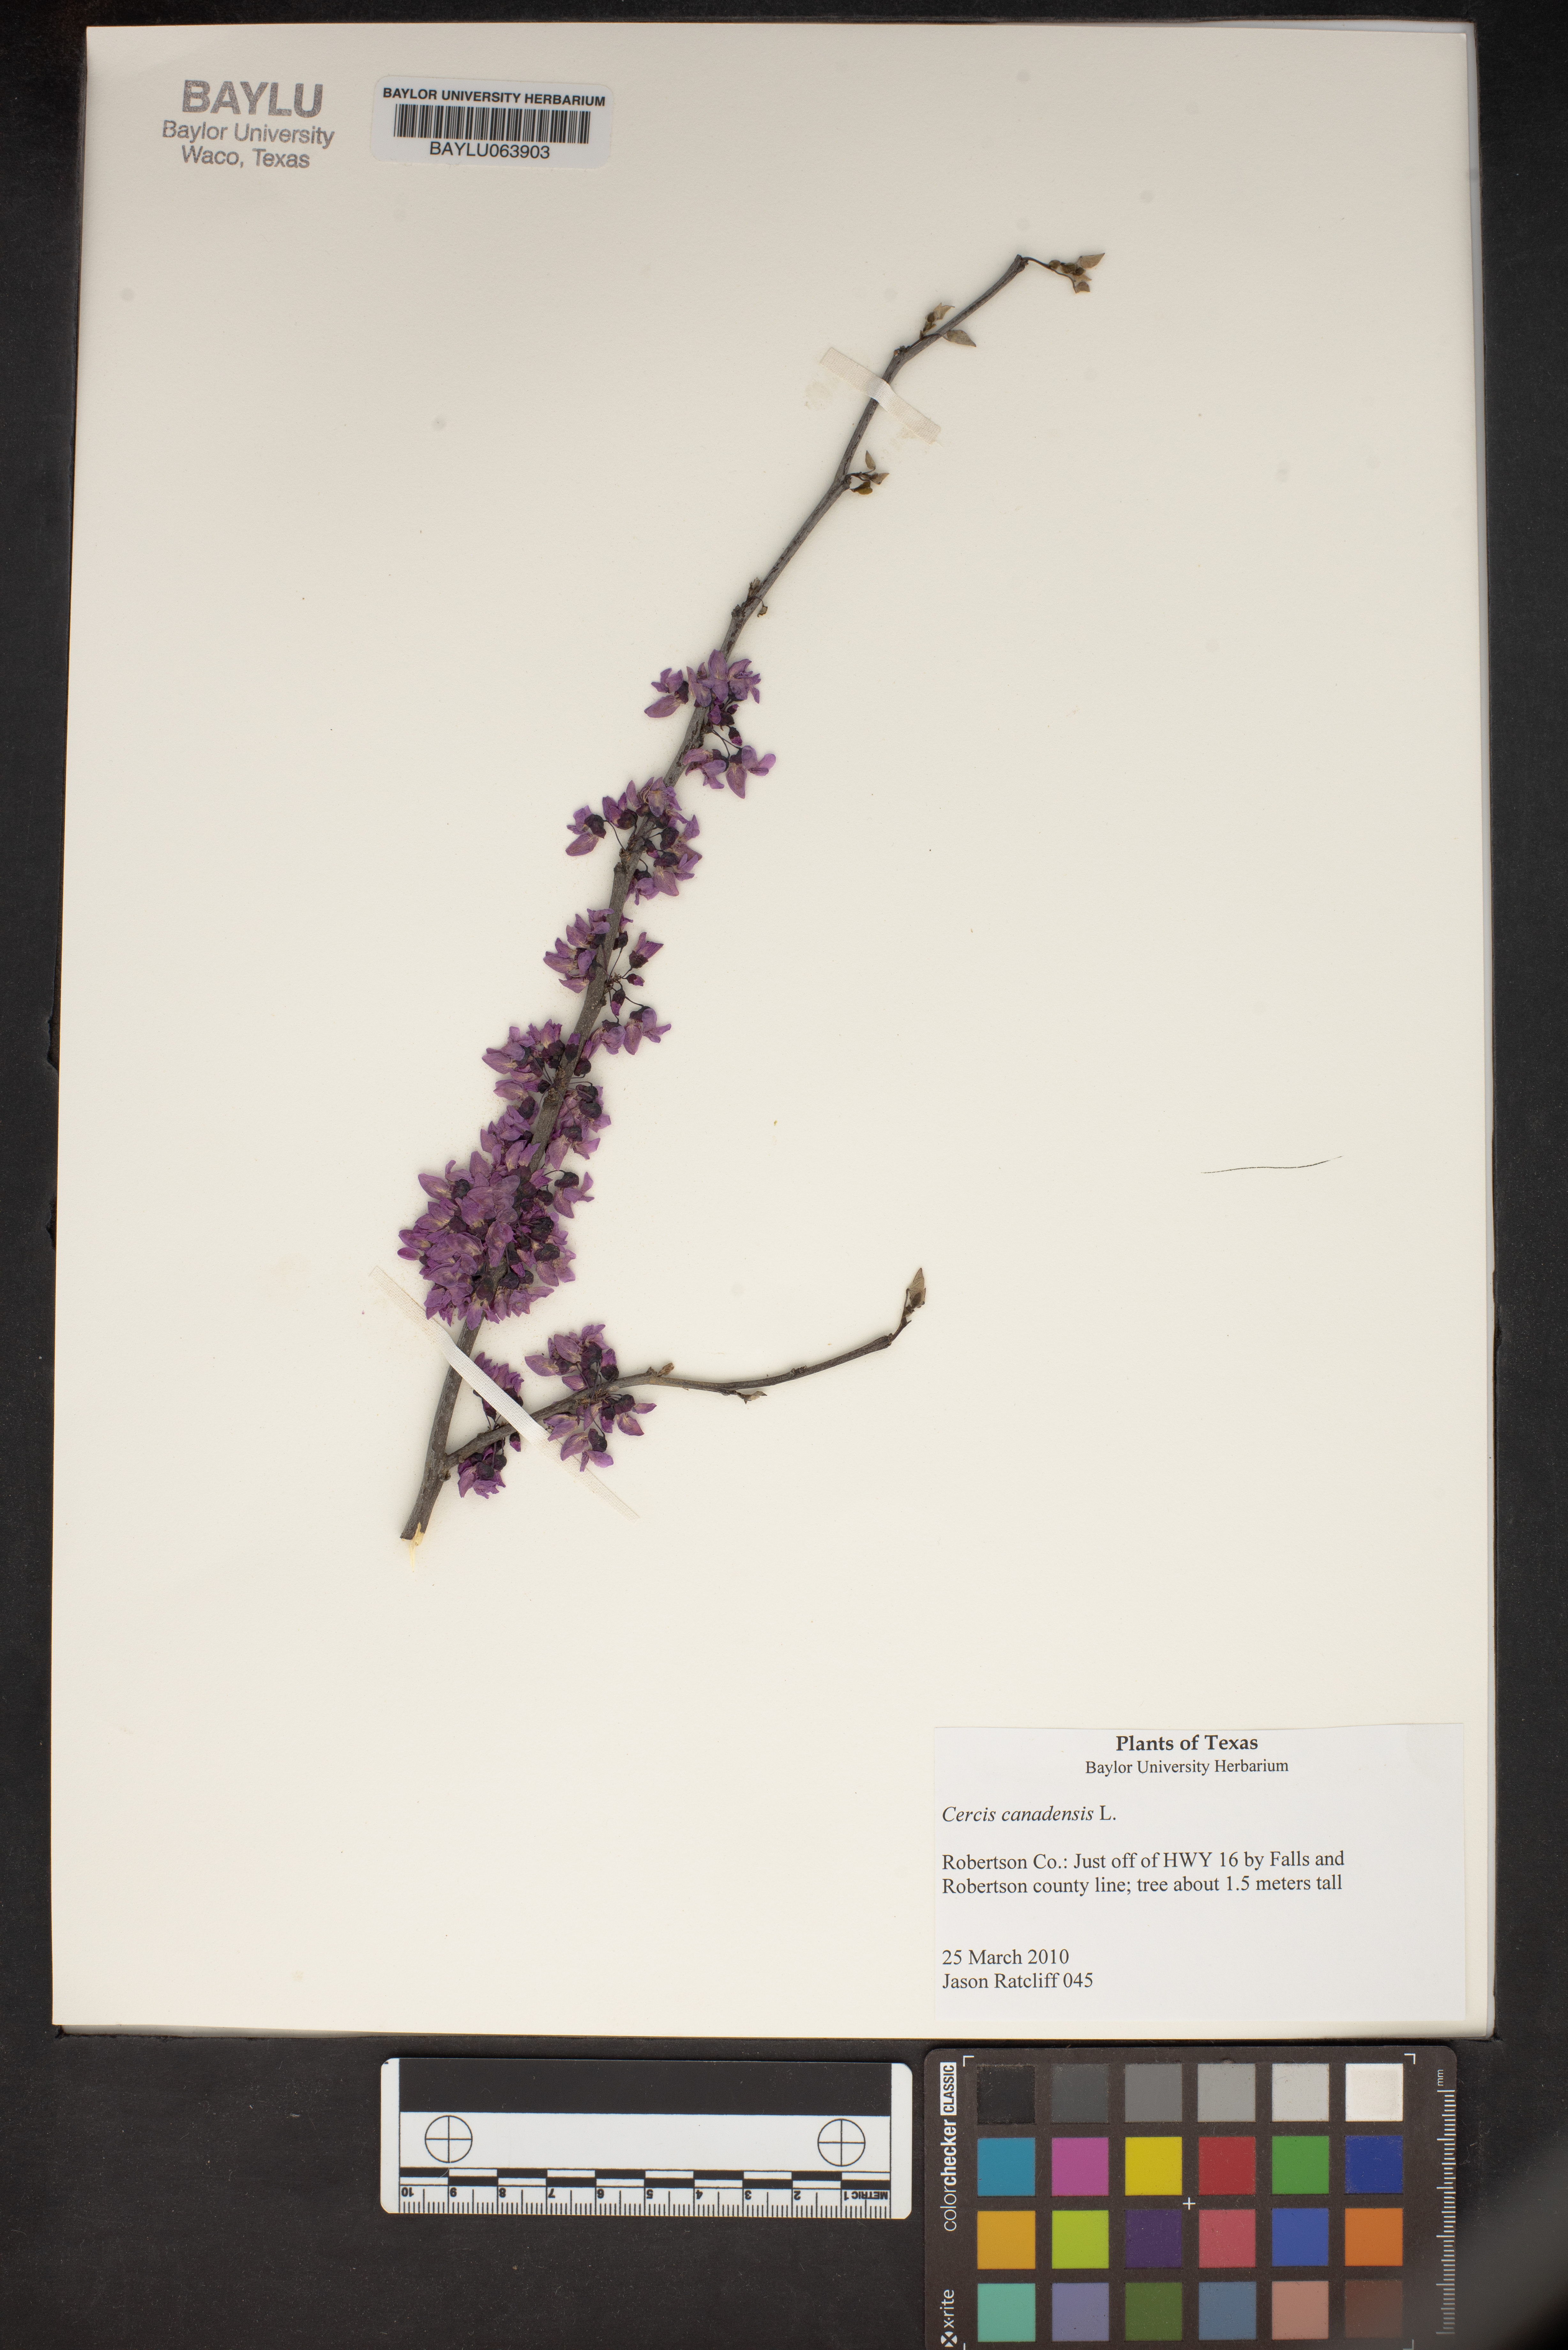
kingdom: Plantae
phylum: Tracheophyta
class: Magnoliopsida
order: Fabales
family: Fabaceae
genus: Cercis
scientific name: Cercis canadensis
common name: Eastern redbud
